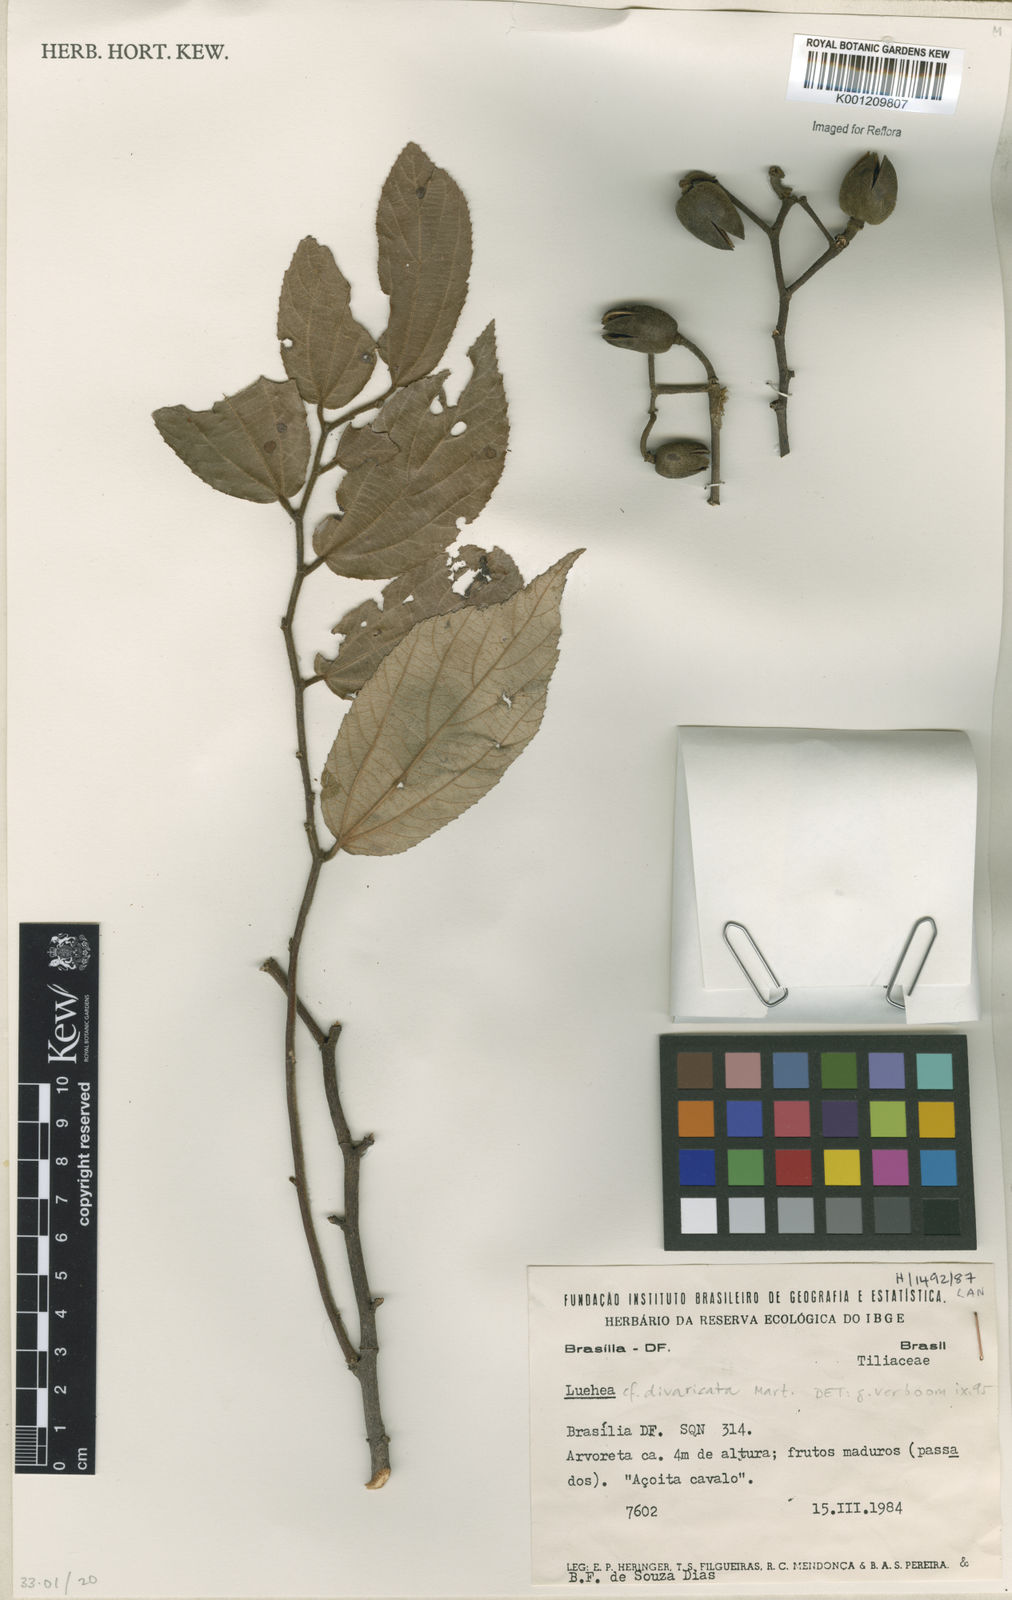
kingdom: Plantae
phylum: Tracheophyta
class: Magnoliopsida
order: Malvales
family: Malvaceae
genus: Luehea
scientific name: Luehea divaricata
